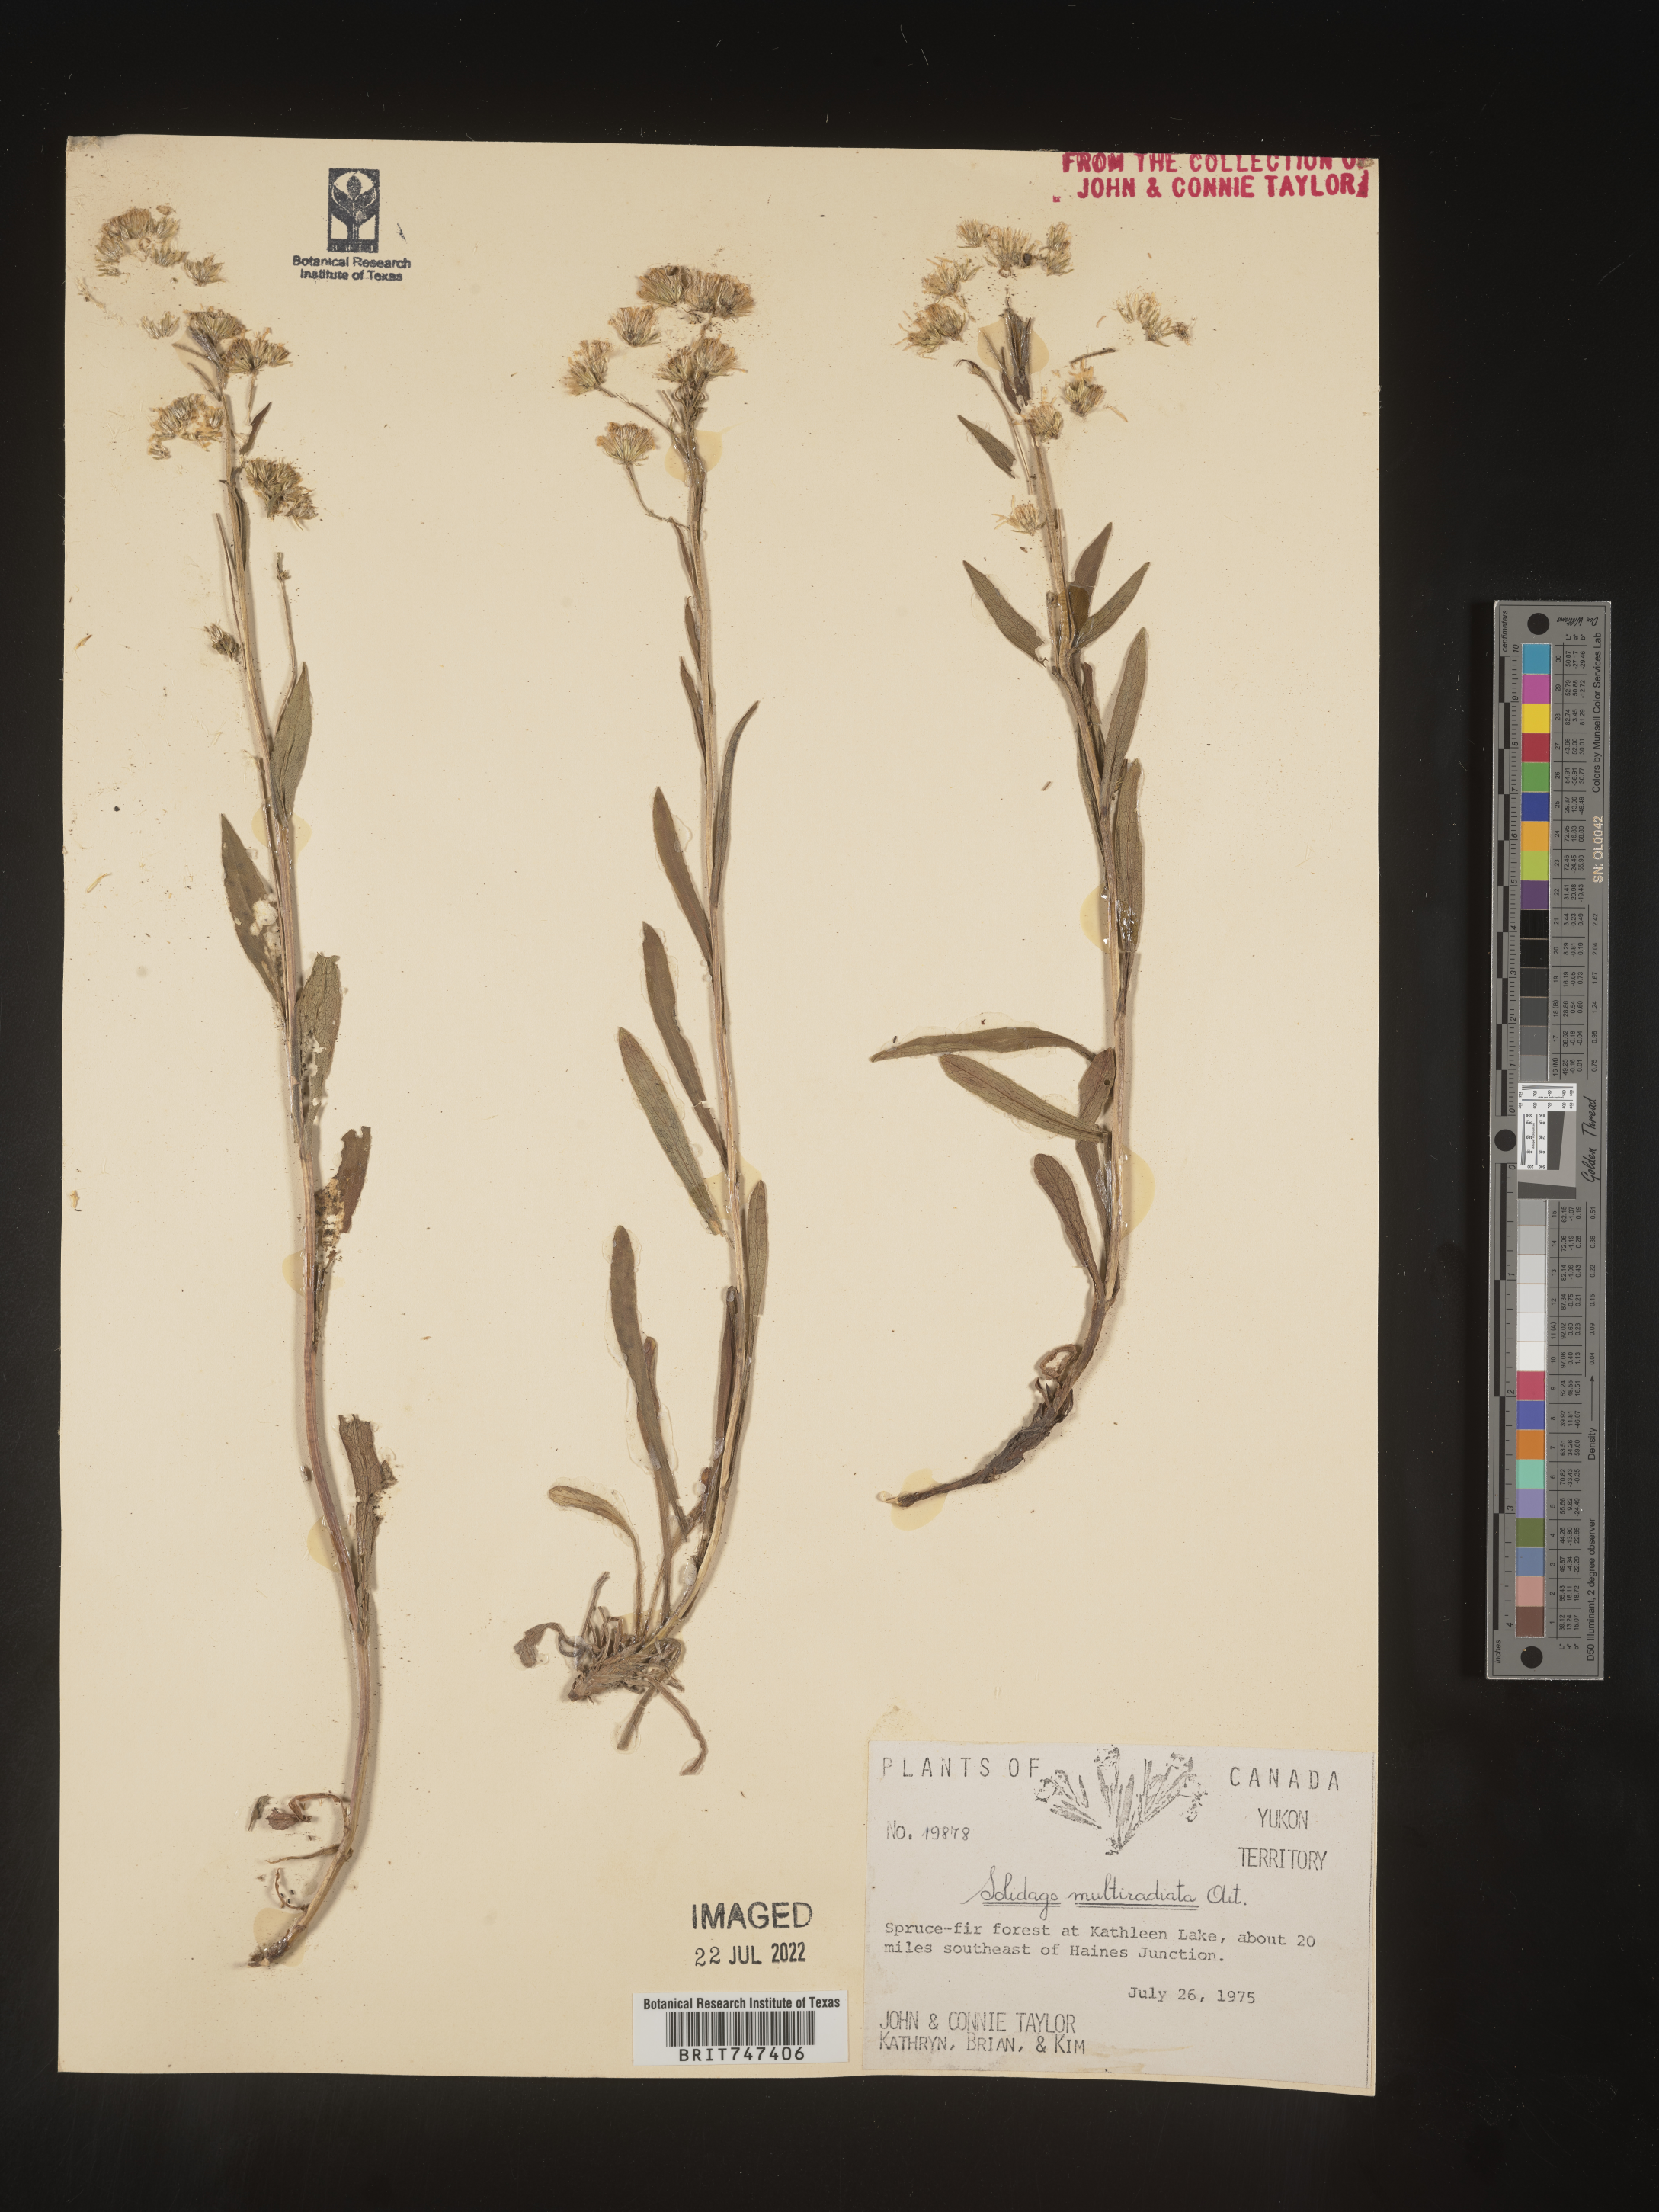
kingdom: Plantae
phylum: Tracheophyta
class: Magnoliopsida
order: Asterales
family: Asteraceae
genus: Solidago
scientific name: Solidago multiradiata
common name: Northern goldenrod
